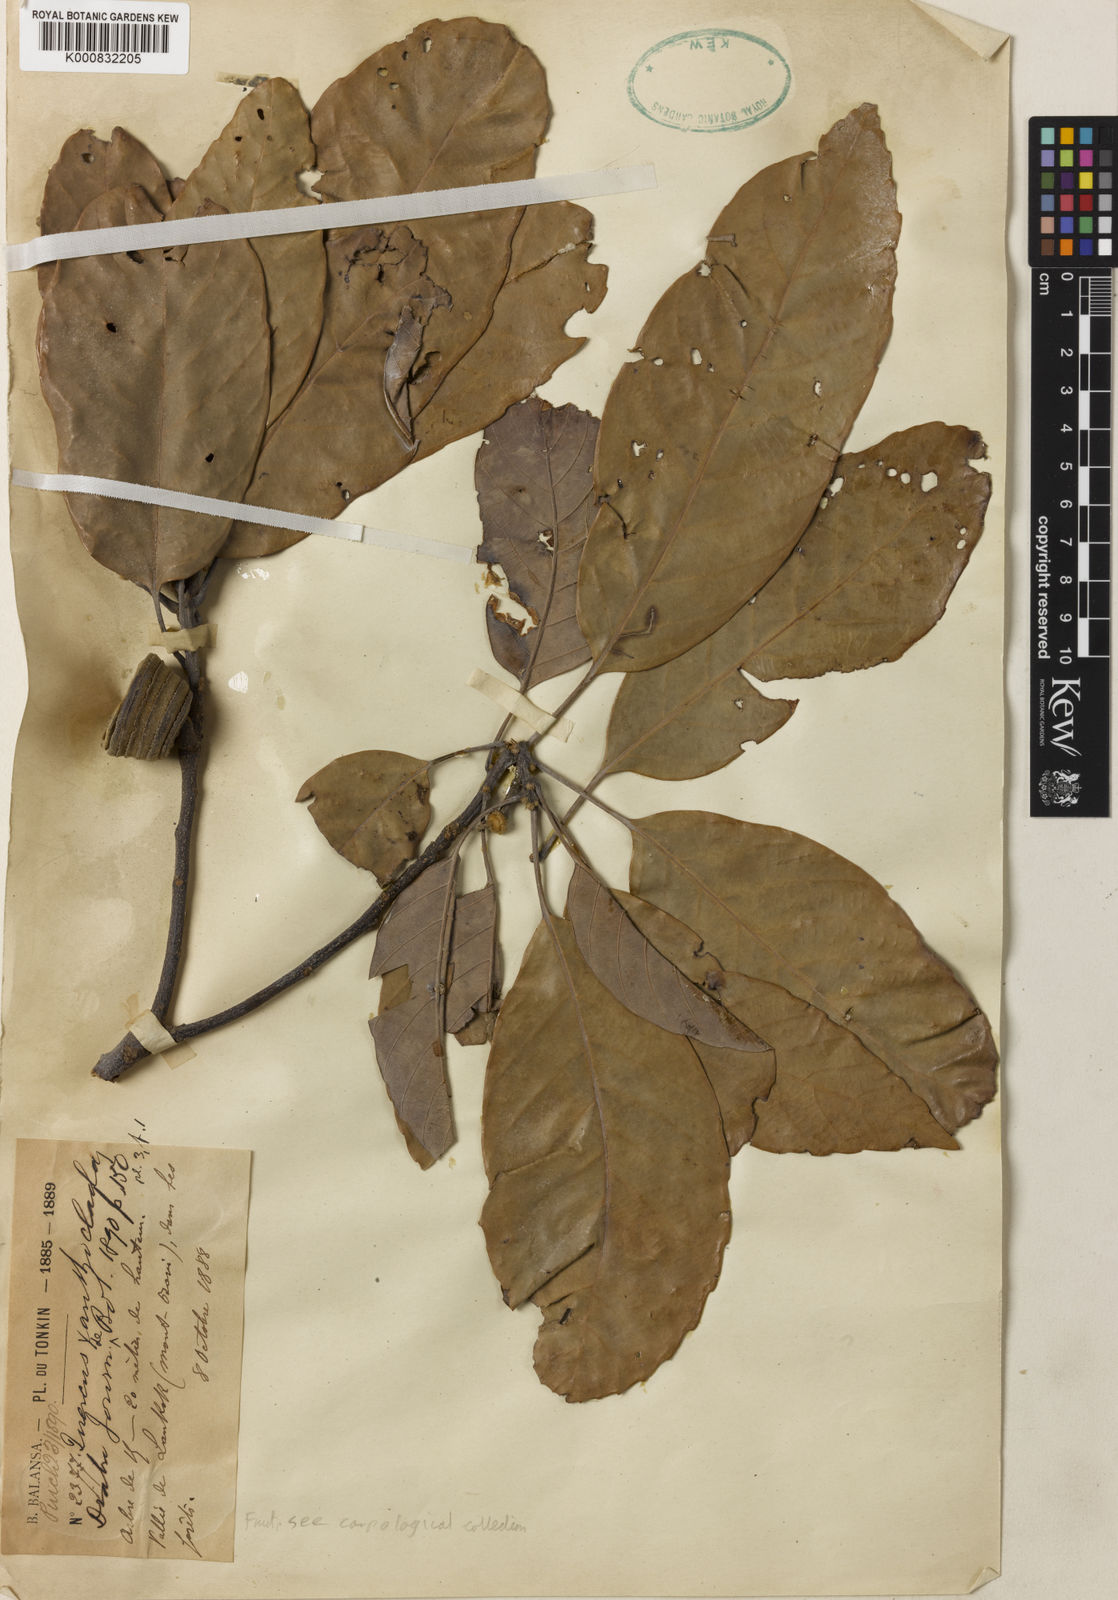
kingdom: Plantae
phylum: Tracheophyta
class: Magnoliopsida
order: Fagales
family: Fagaceae
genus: Quercus
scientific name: Quercus xanthoclada
